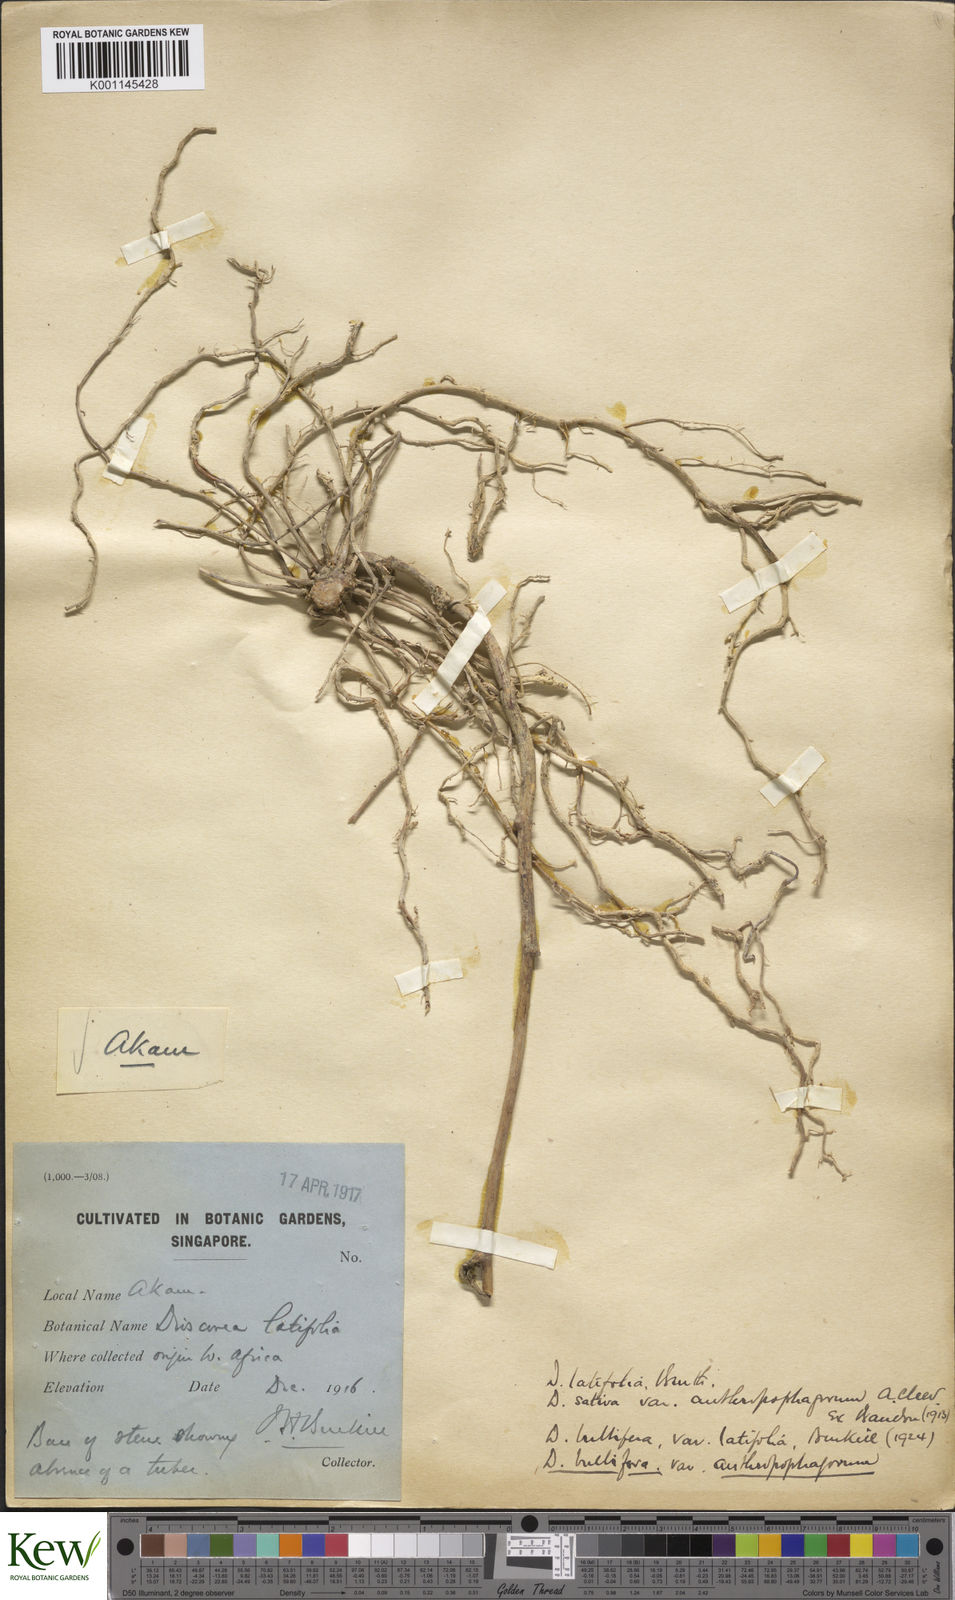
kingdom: Plantae
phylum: Tracheophyta
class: Liliopsida
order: Dioscoreales
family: Dioscoreaceae
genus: Dioscorea
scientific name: Dioscorea bulbifera
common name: Air yam
